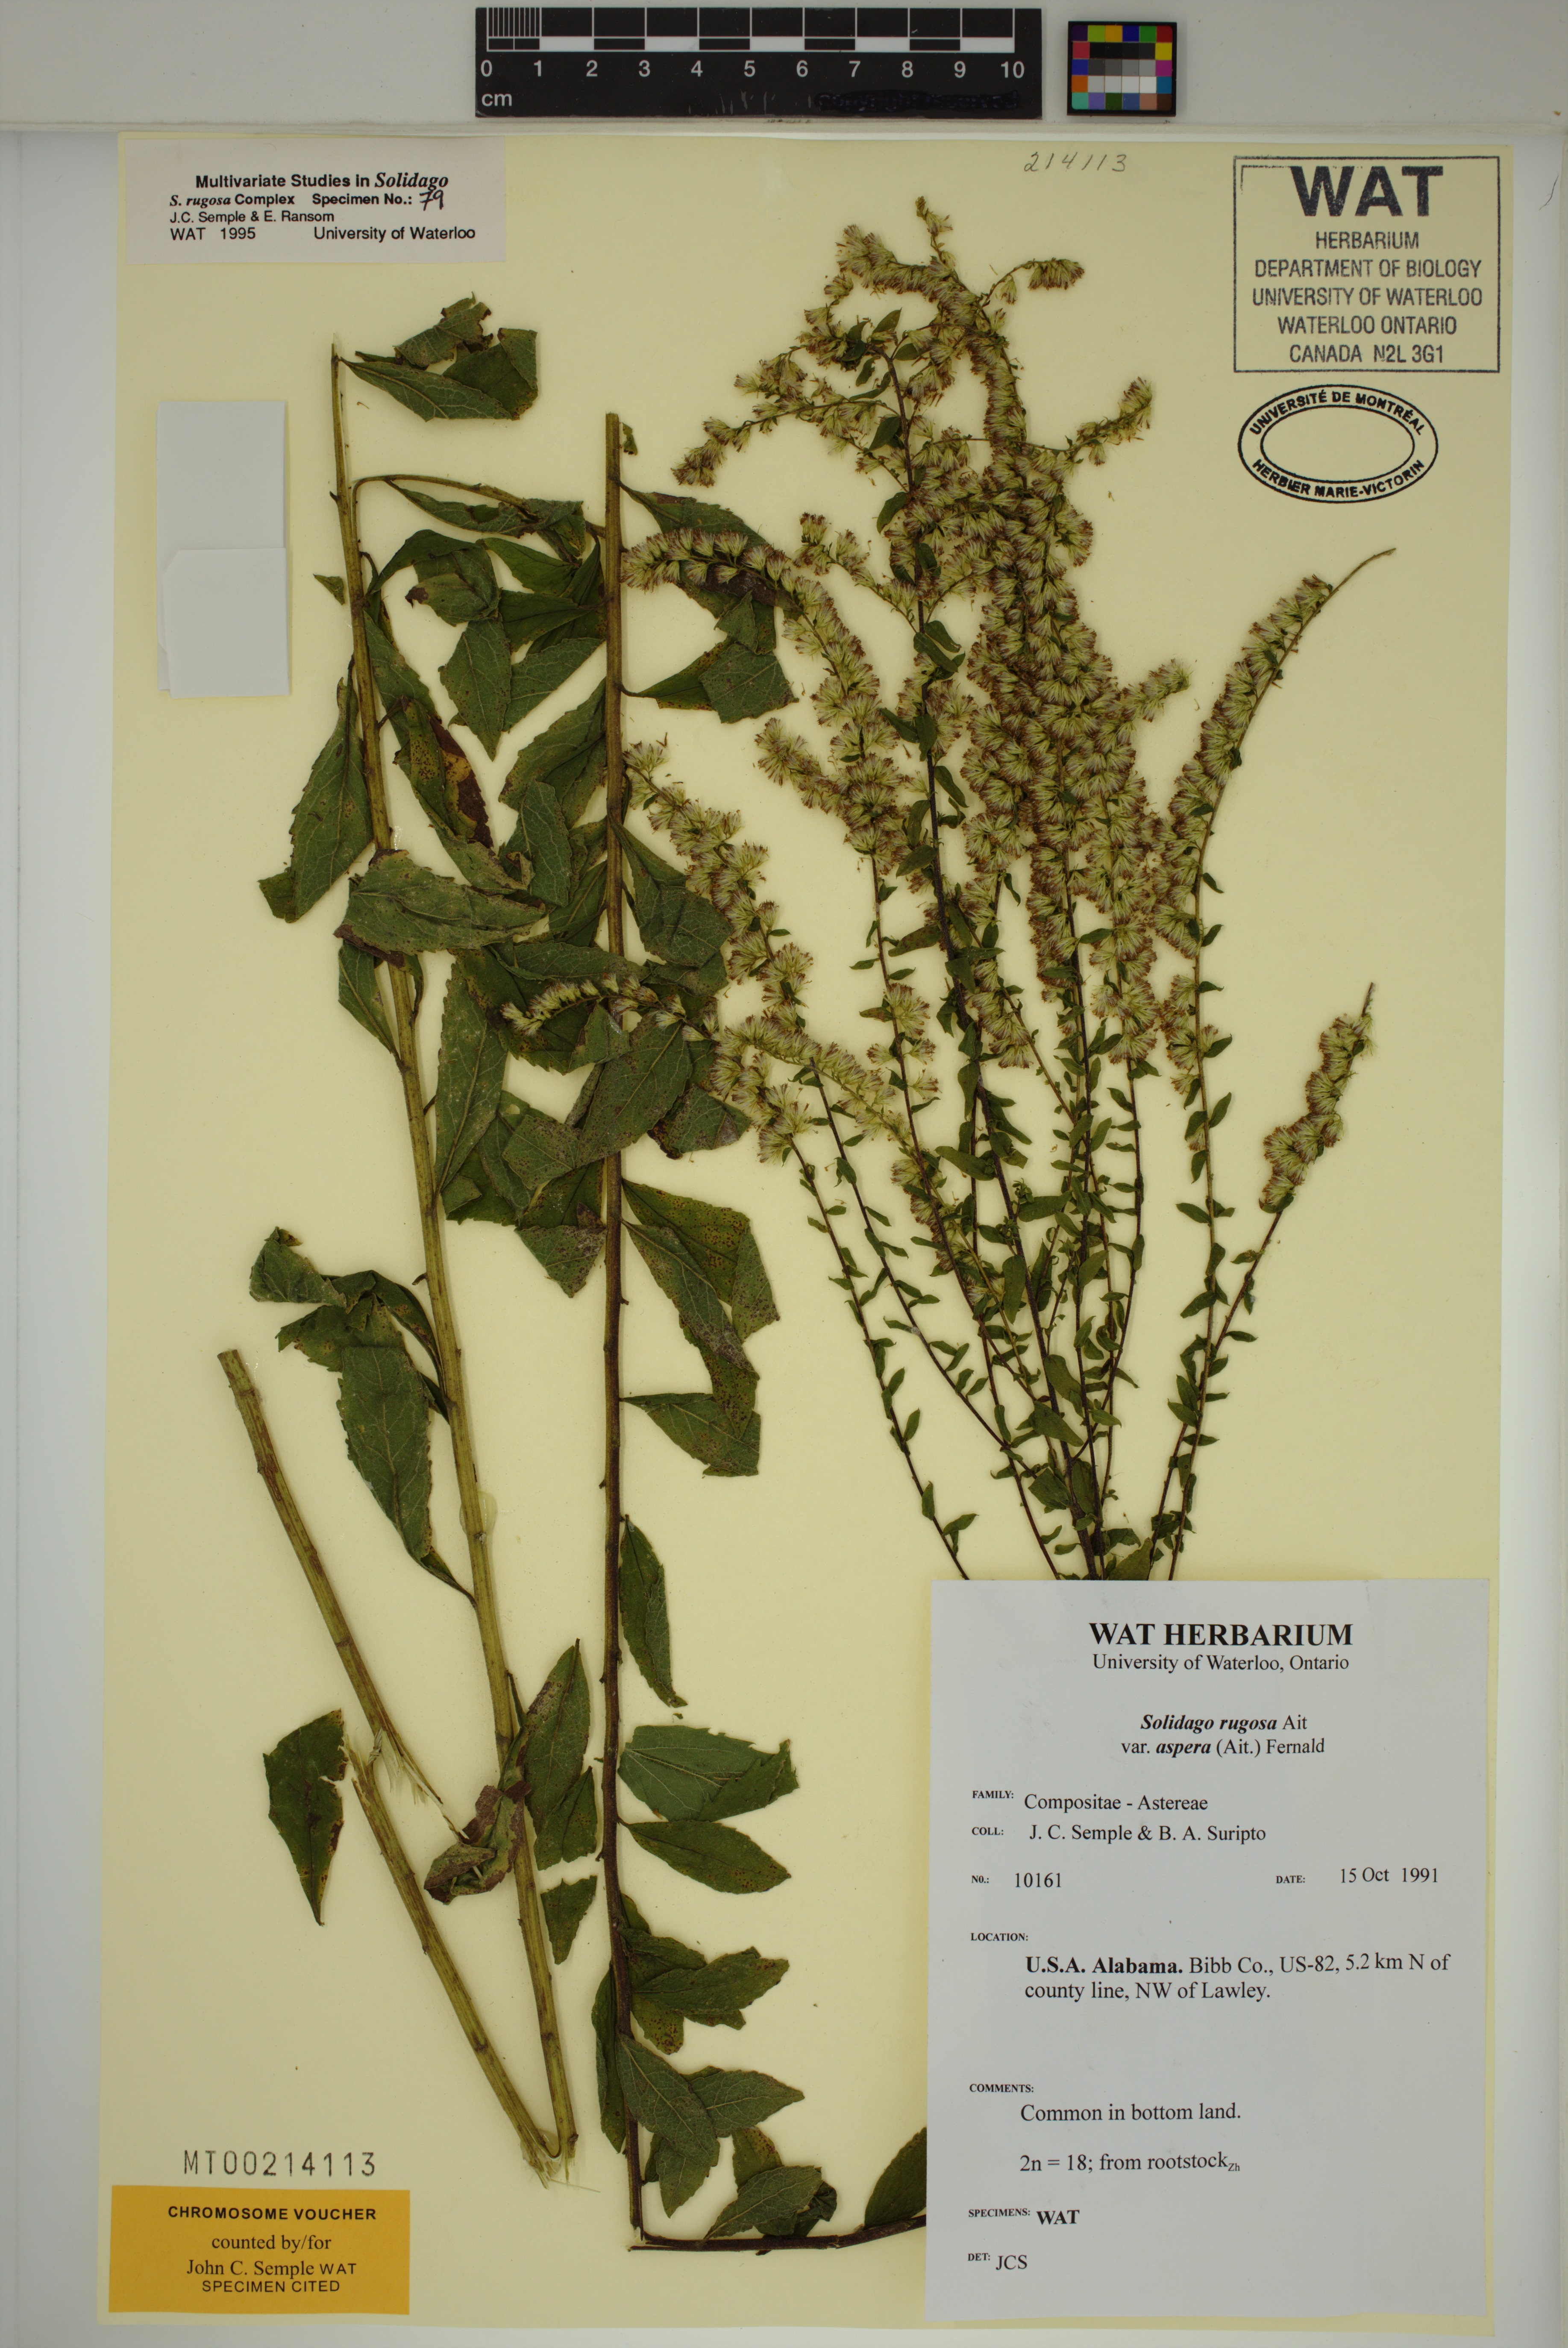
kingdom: Plantae
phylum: Tracheophyta
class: Magnoliopsida
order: Asterales
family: Asteraceae
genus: Solidago
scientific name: Solidago rugosa
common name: Rough-stemmed goldenrod
